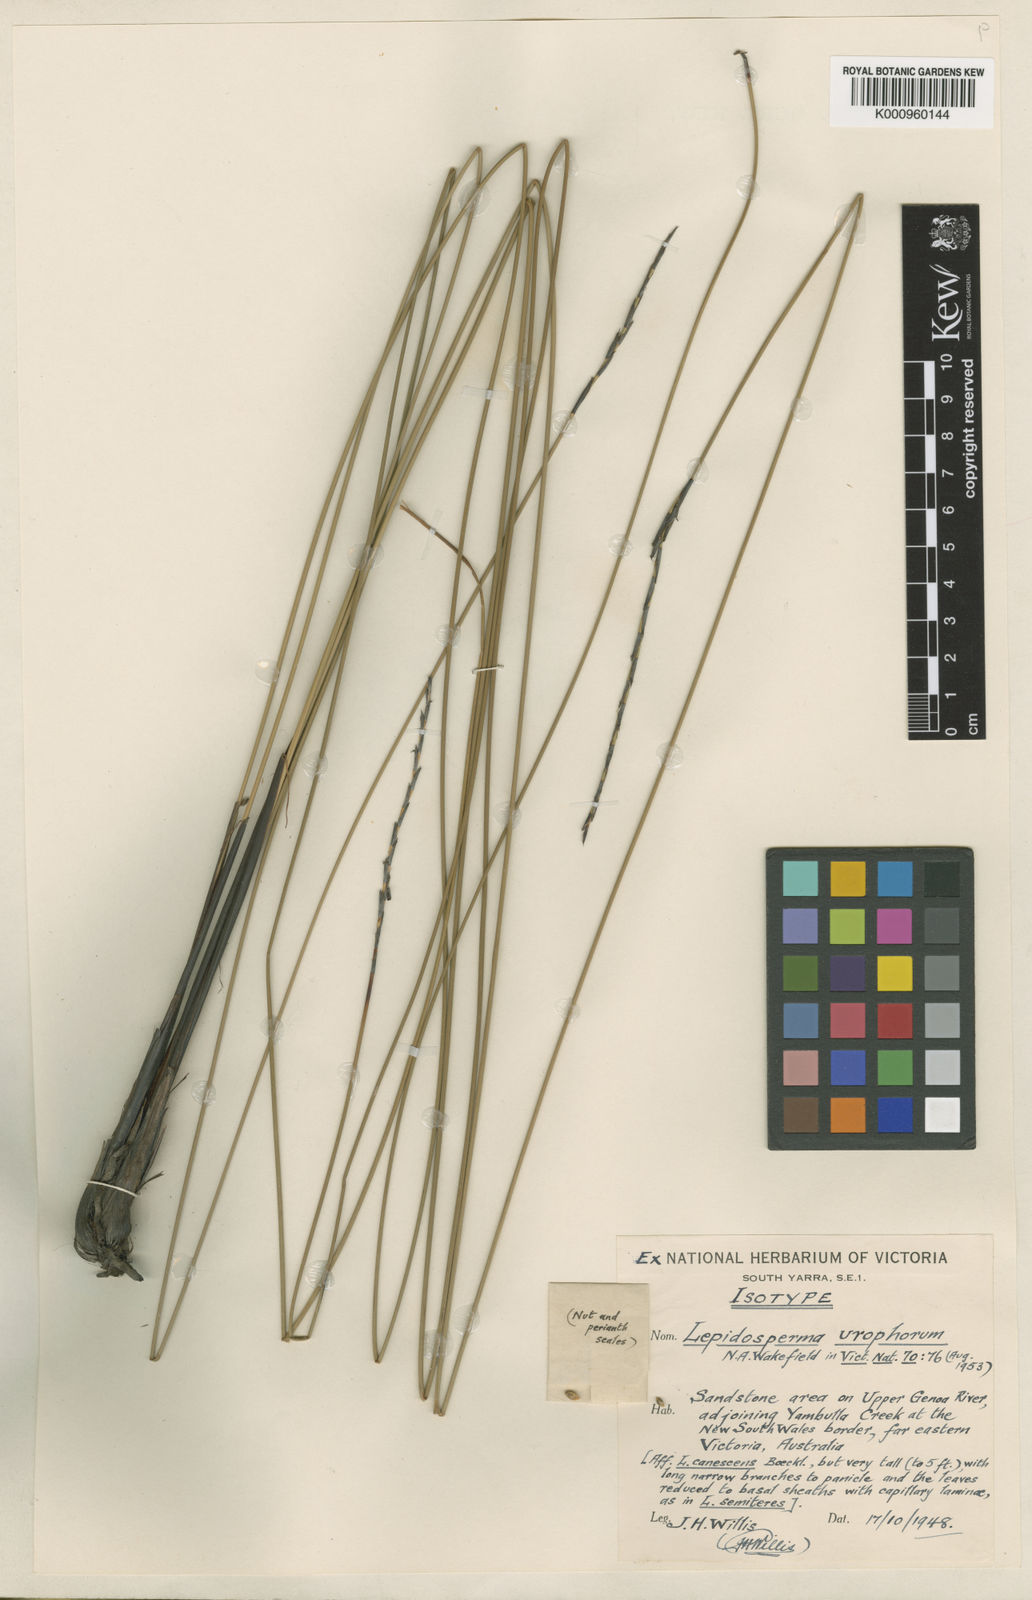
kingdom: Plantae
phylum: Tracheophyta
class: Liliopsida
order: Poales
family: Cyperaceae
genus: Lepidosperma
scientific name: Lepidosperma urophorum
